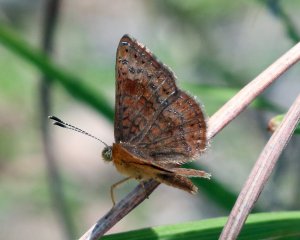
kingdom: Animalia
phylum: Arthropoda
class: Insecta
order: Lepidoptera
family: Lycaenidae
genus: Emesis
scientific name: Emesis rawsoni
